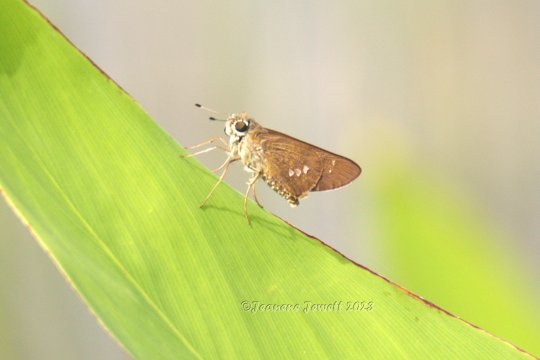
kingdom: Animalia
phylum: Arthropoda
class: Insecta
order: Lepidoptera
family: Hesperiidae
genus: Calpodes
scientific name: Calpodes ethlius
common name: Brazilian Skipper
